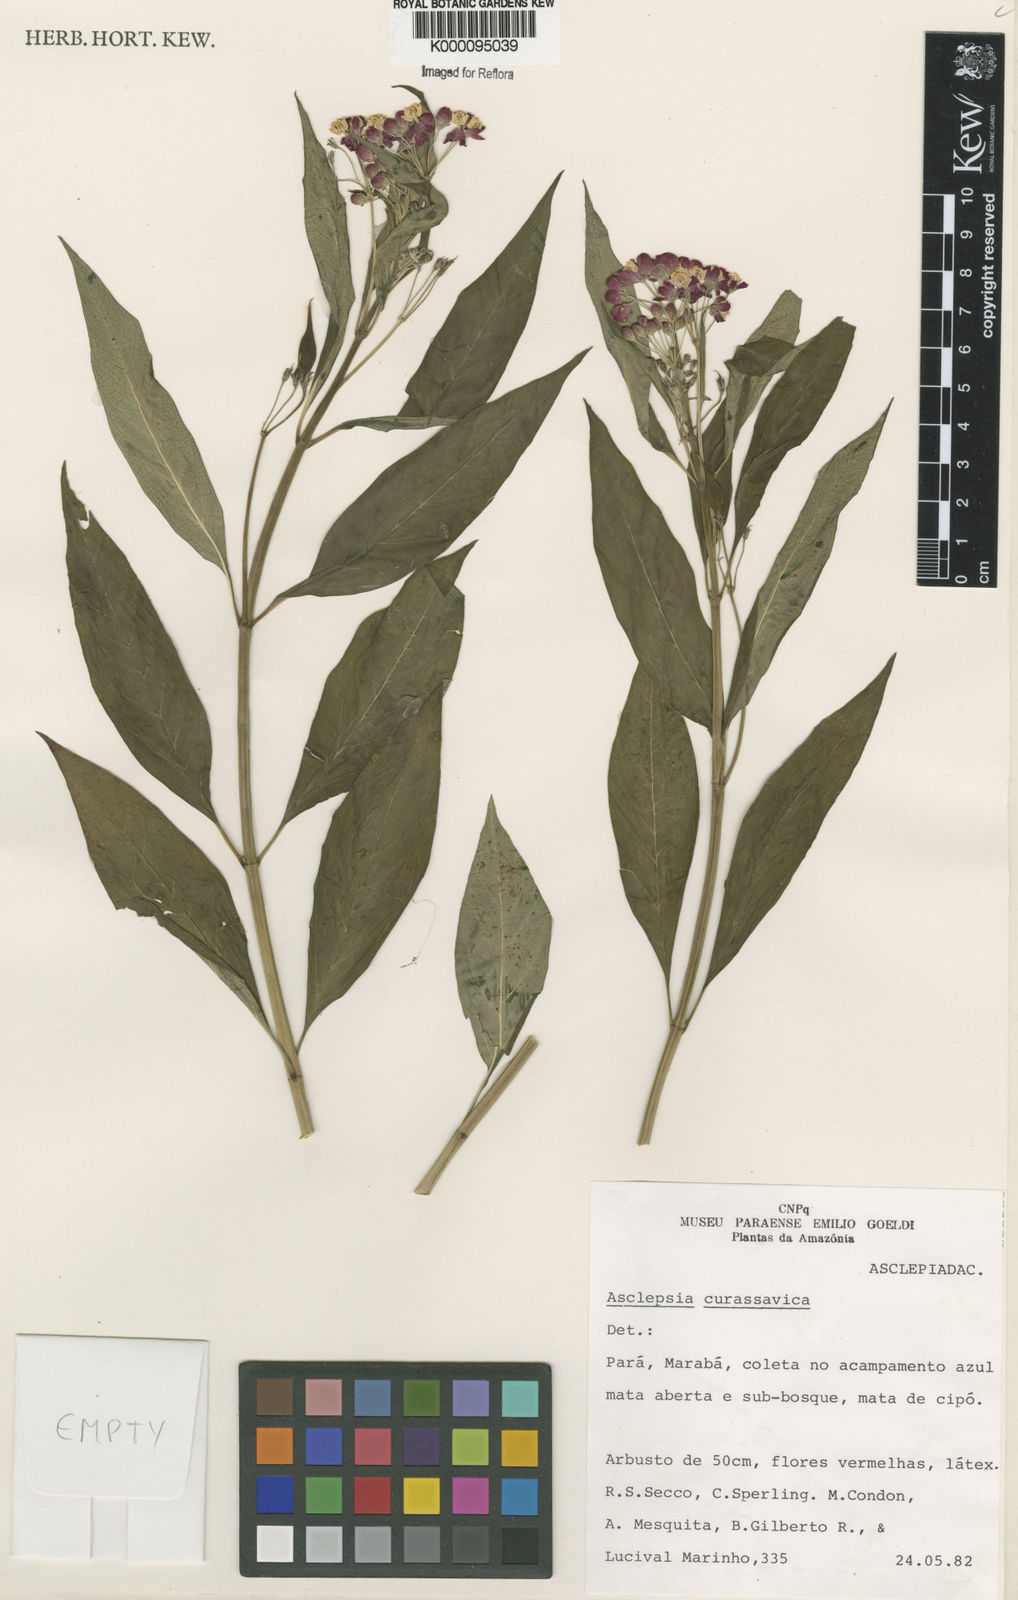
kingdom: Plantae
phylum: Tracheophyta
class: Magnoliopsida
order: Gentianales
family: Apocynaceae
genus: Asclepias
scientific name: Asclepias curassavica
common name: Bloodflower
